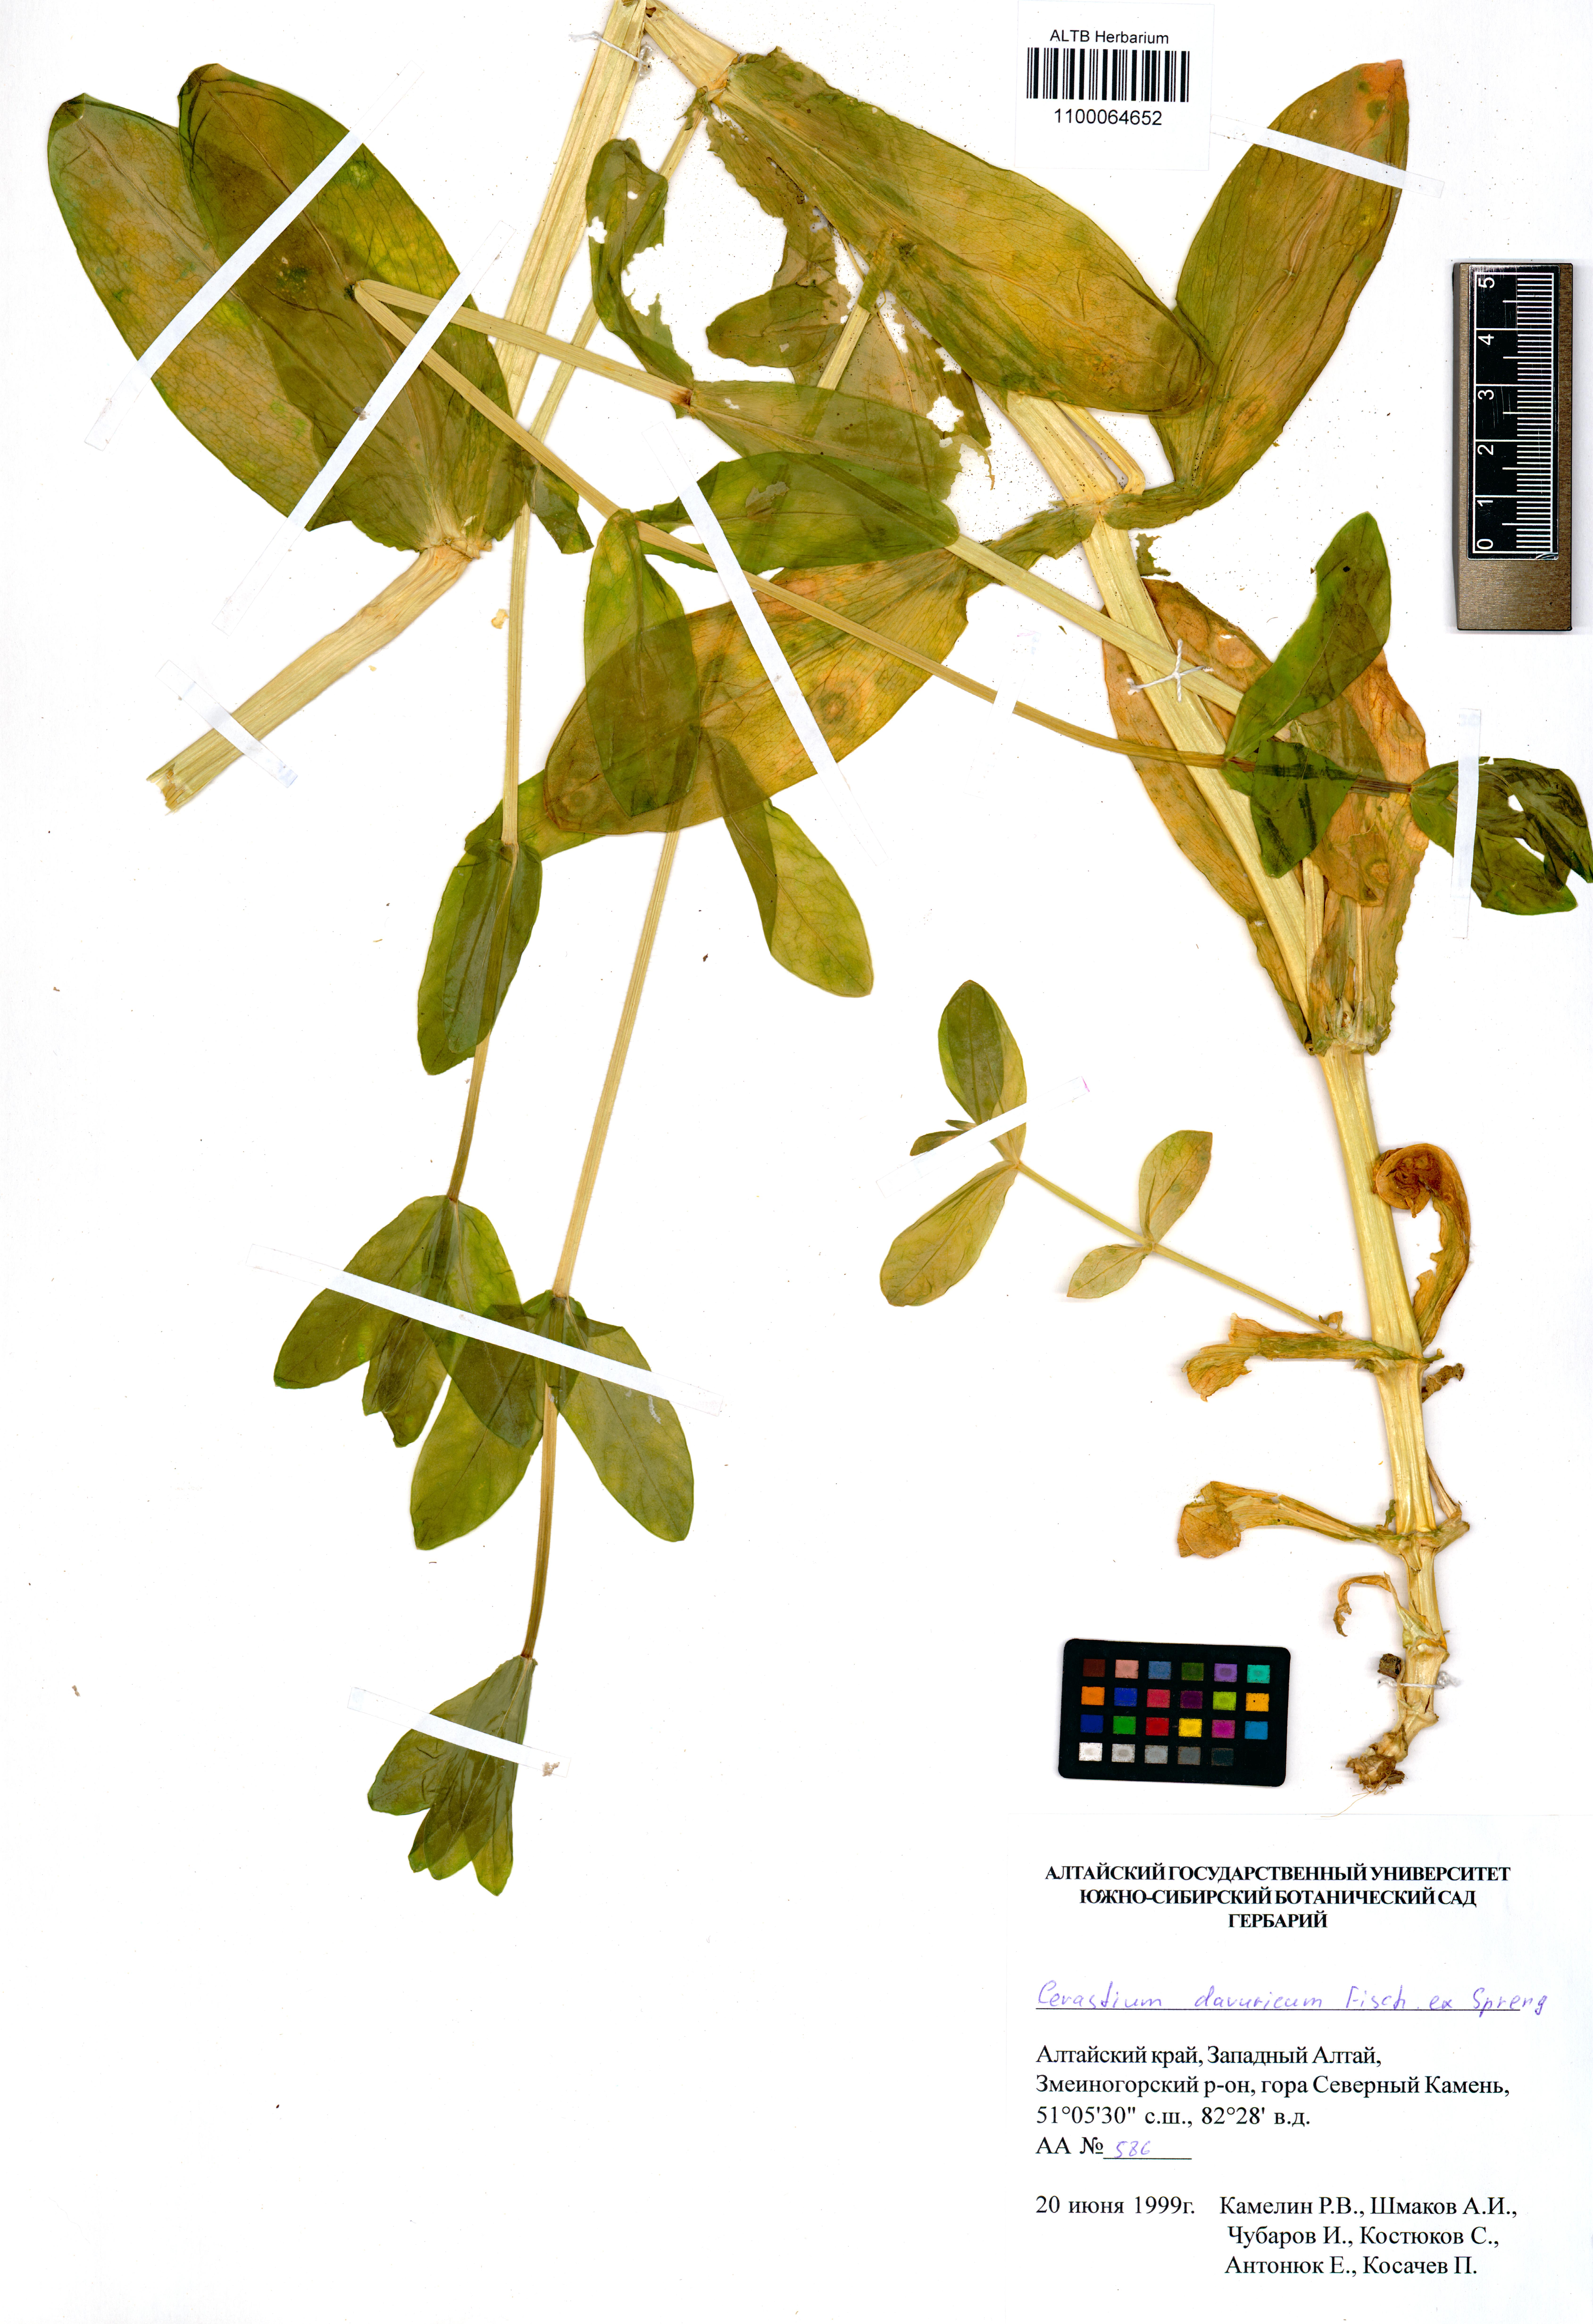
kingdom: Plantae
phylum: Tracheophyta
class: Magnoliopsida
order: Caryophyllales
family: Caryophyllaceae
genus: Dichodon
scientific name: Dichodon davuricum
